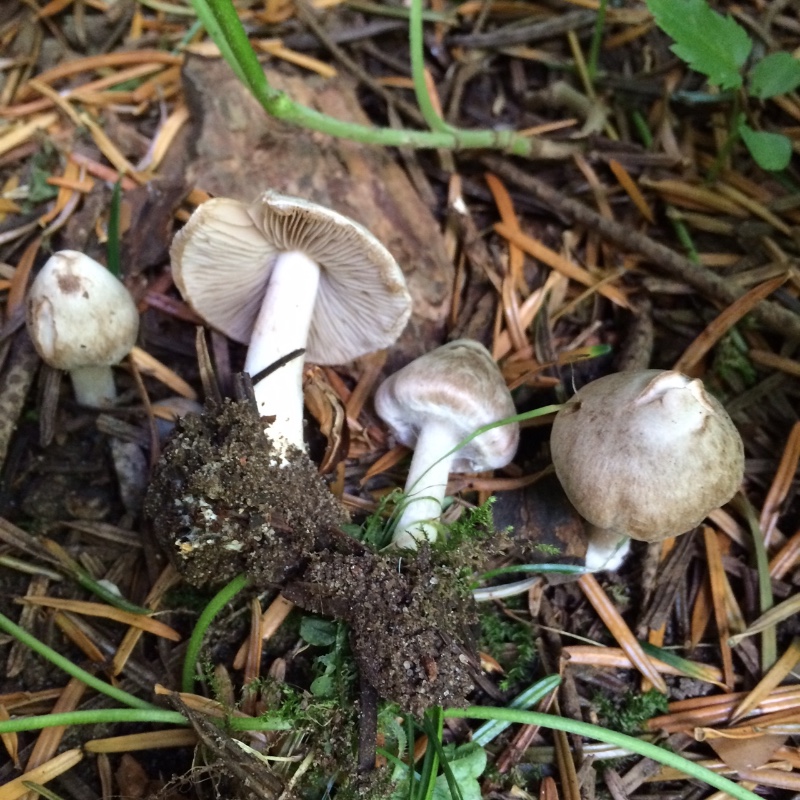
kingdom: Fungi
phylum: Basidiomycota
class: Agaricomycetes
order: Agaricales
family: Inocybaceae
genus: Inocybe
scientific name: Inocybe
